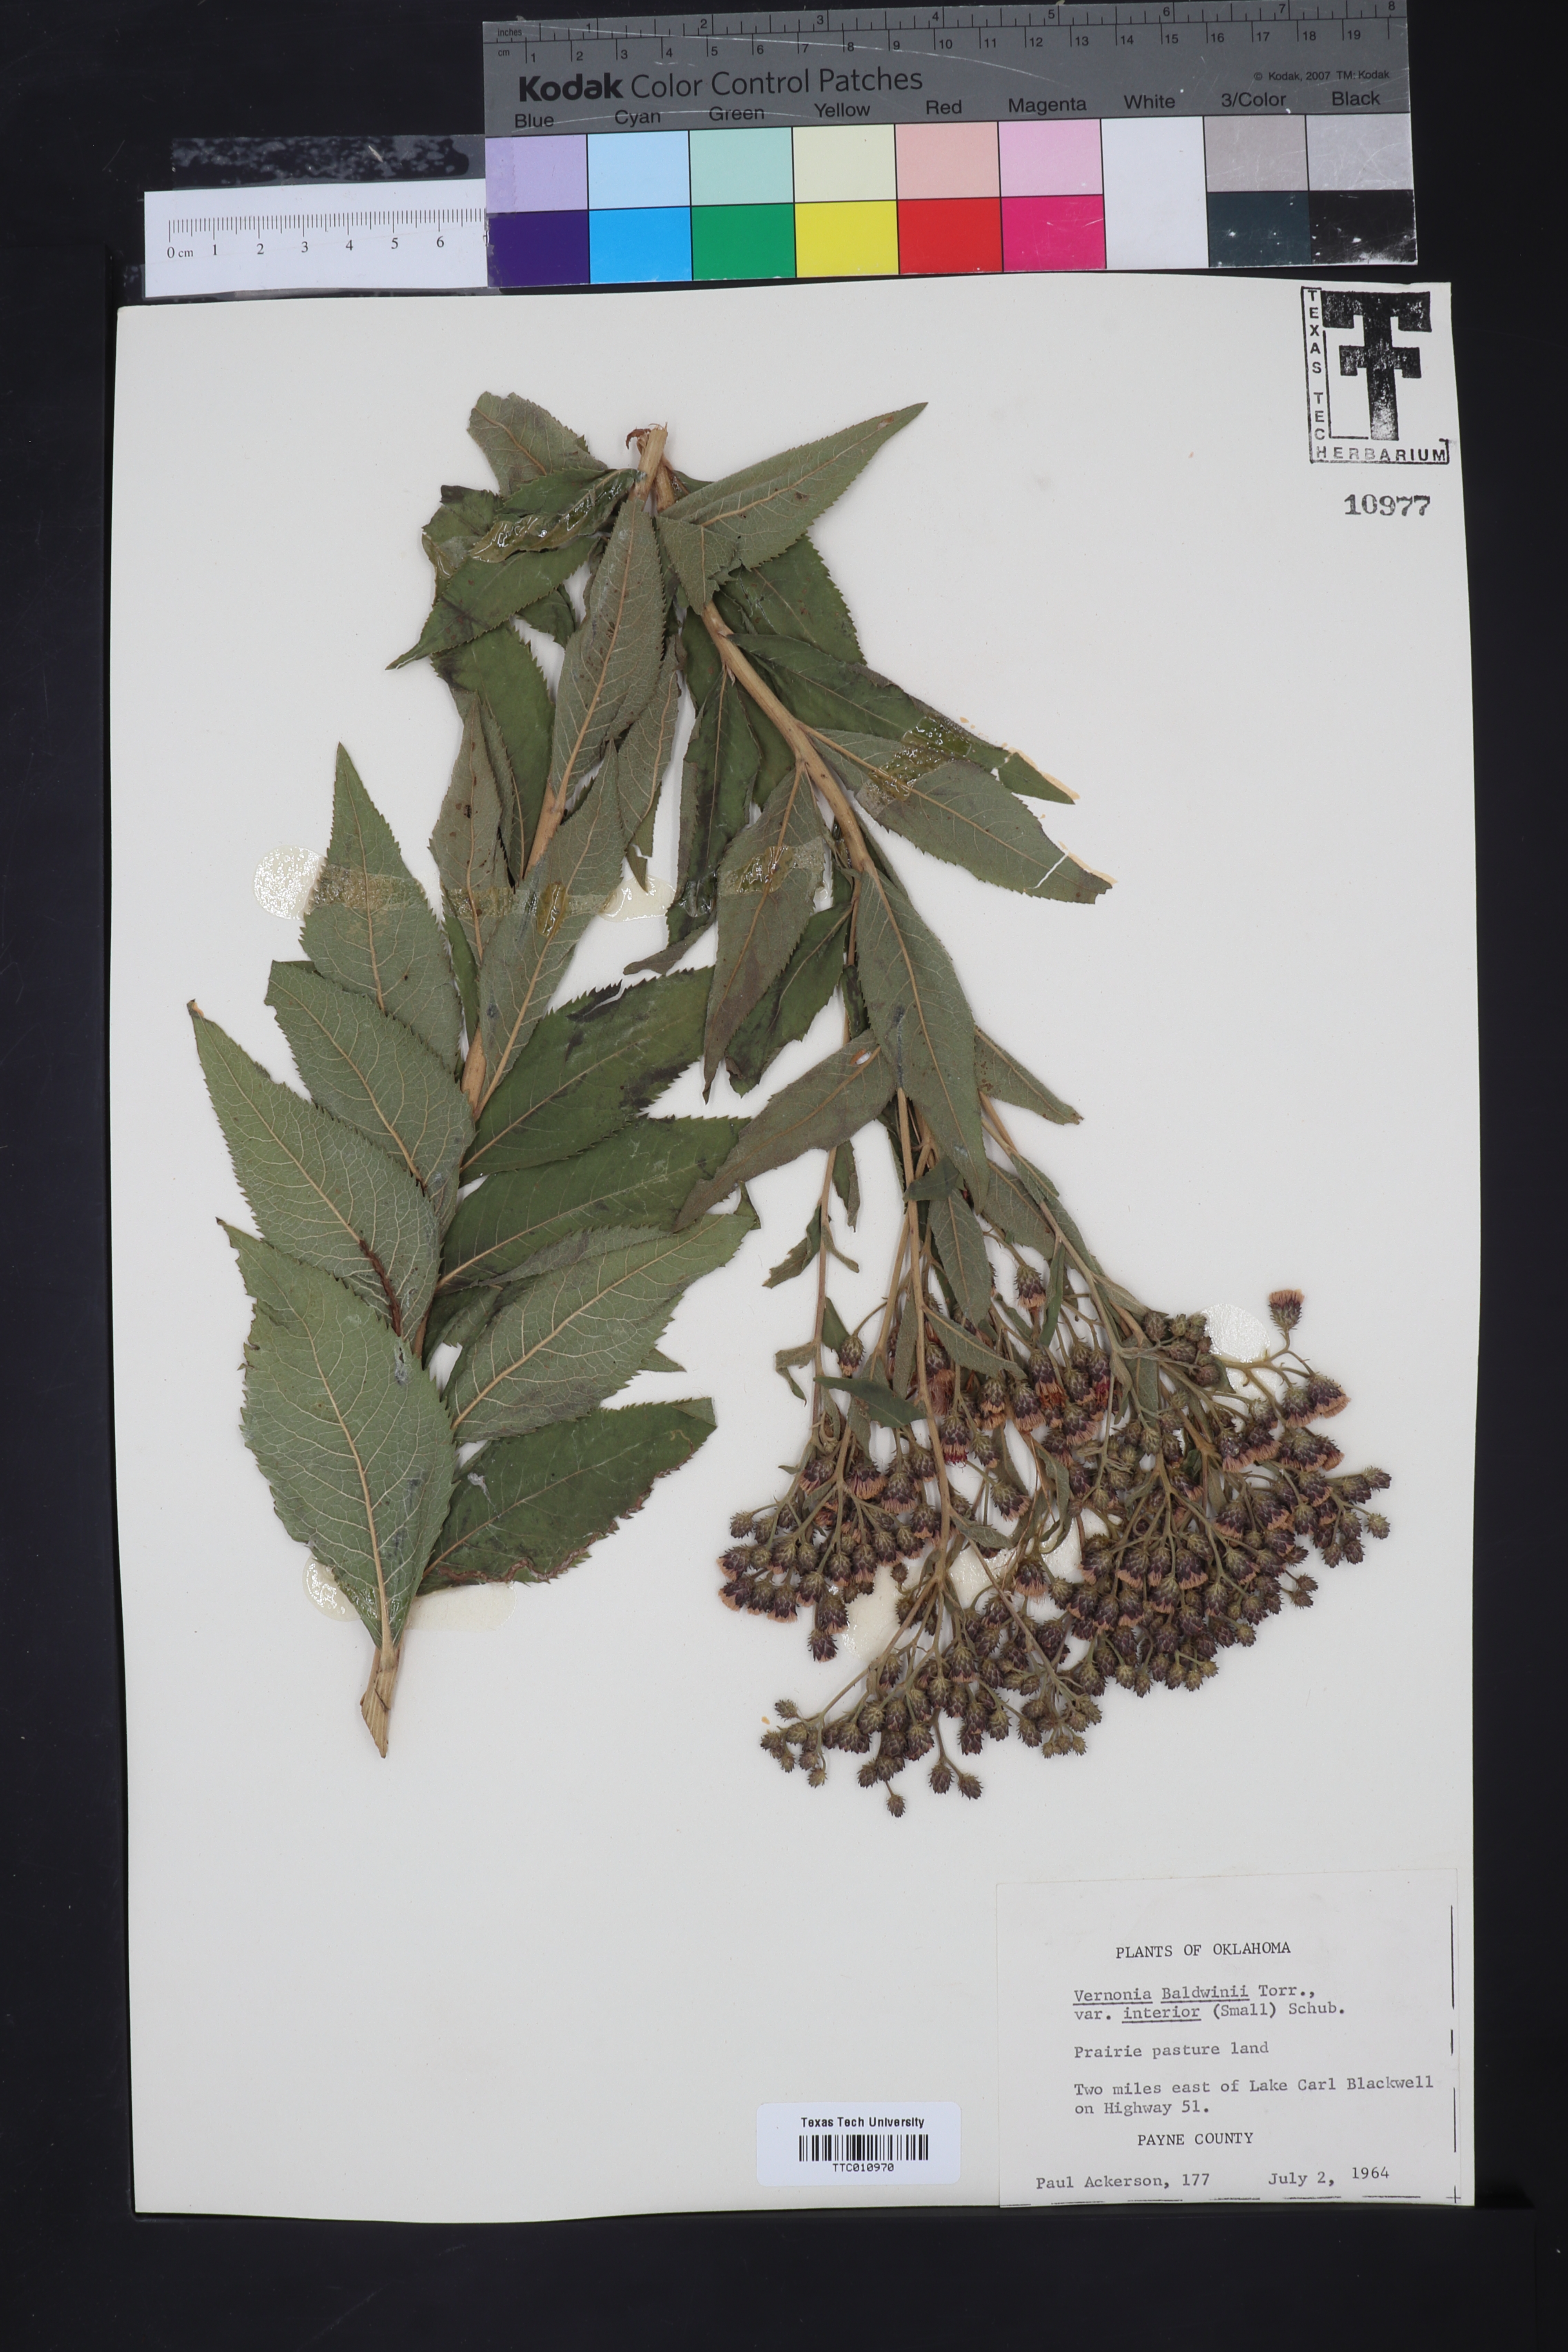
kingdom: Plantae
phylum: Tracheophyta
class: Magnoliopsida
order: Asterales
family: Asteraceae
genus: Vernonia
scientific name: Vernonia baldwinii
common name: Western ironweed
